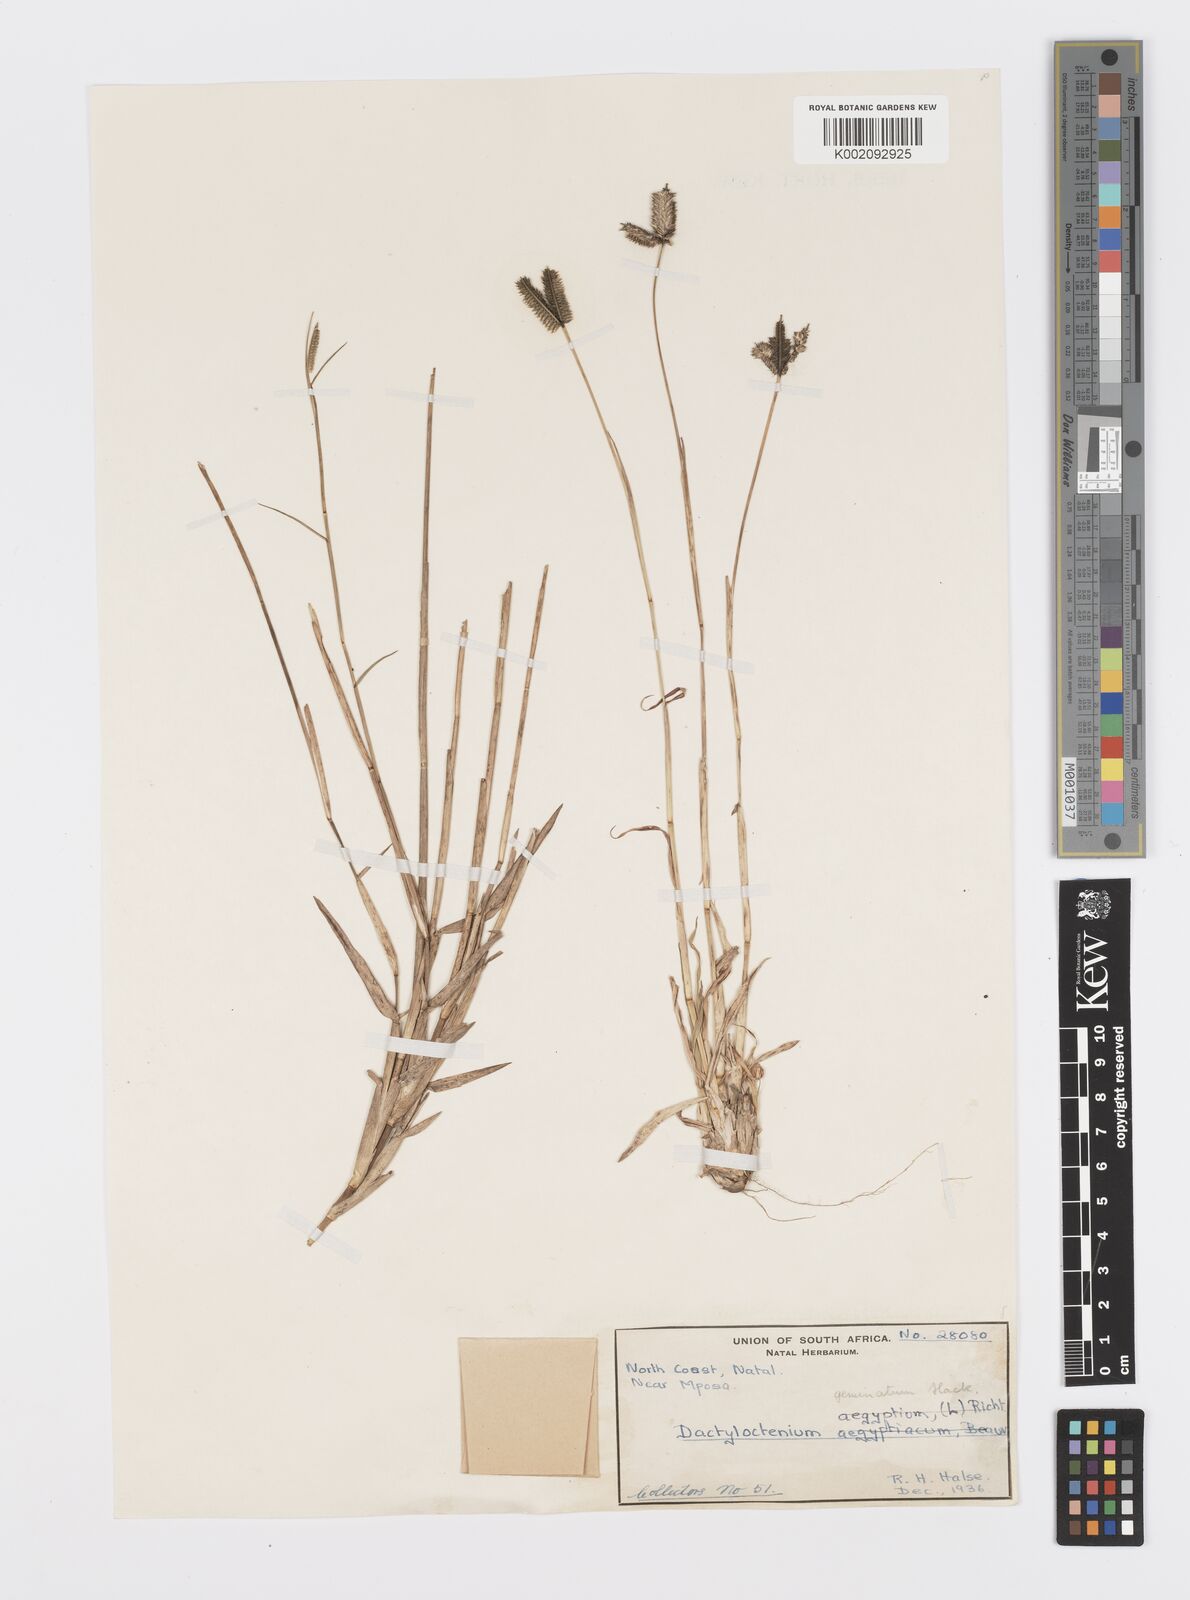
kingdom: Plantae
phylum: Tracheophyta
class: Liliopsida
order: Poales
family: Poaceae
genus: Dactyloctenium
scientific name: Dactyloctenium geminatum
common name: Crowsfoot grass
